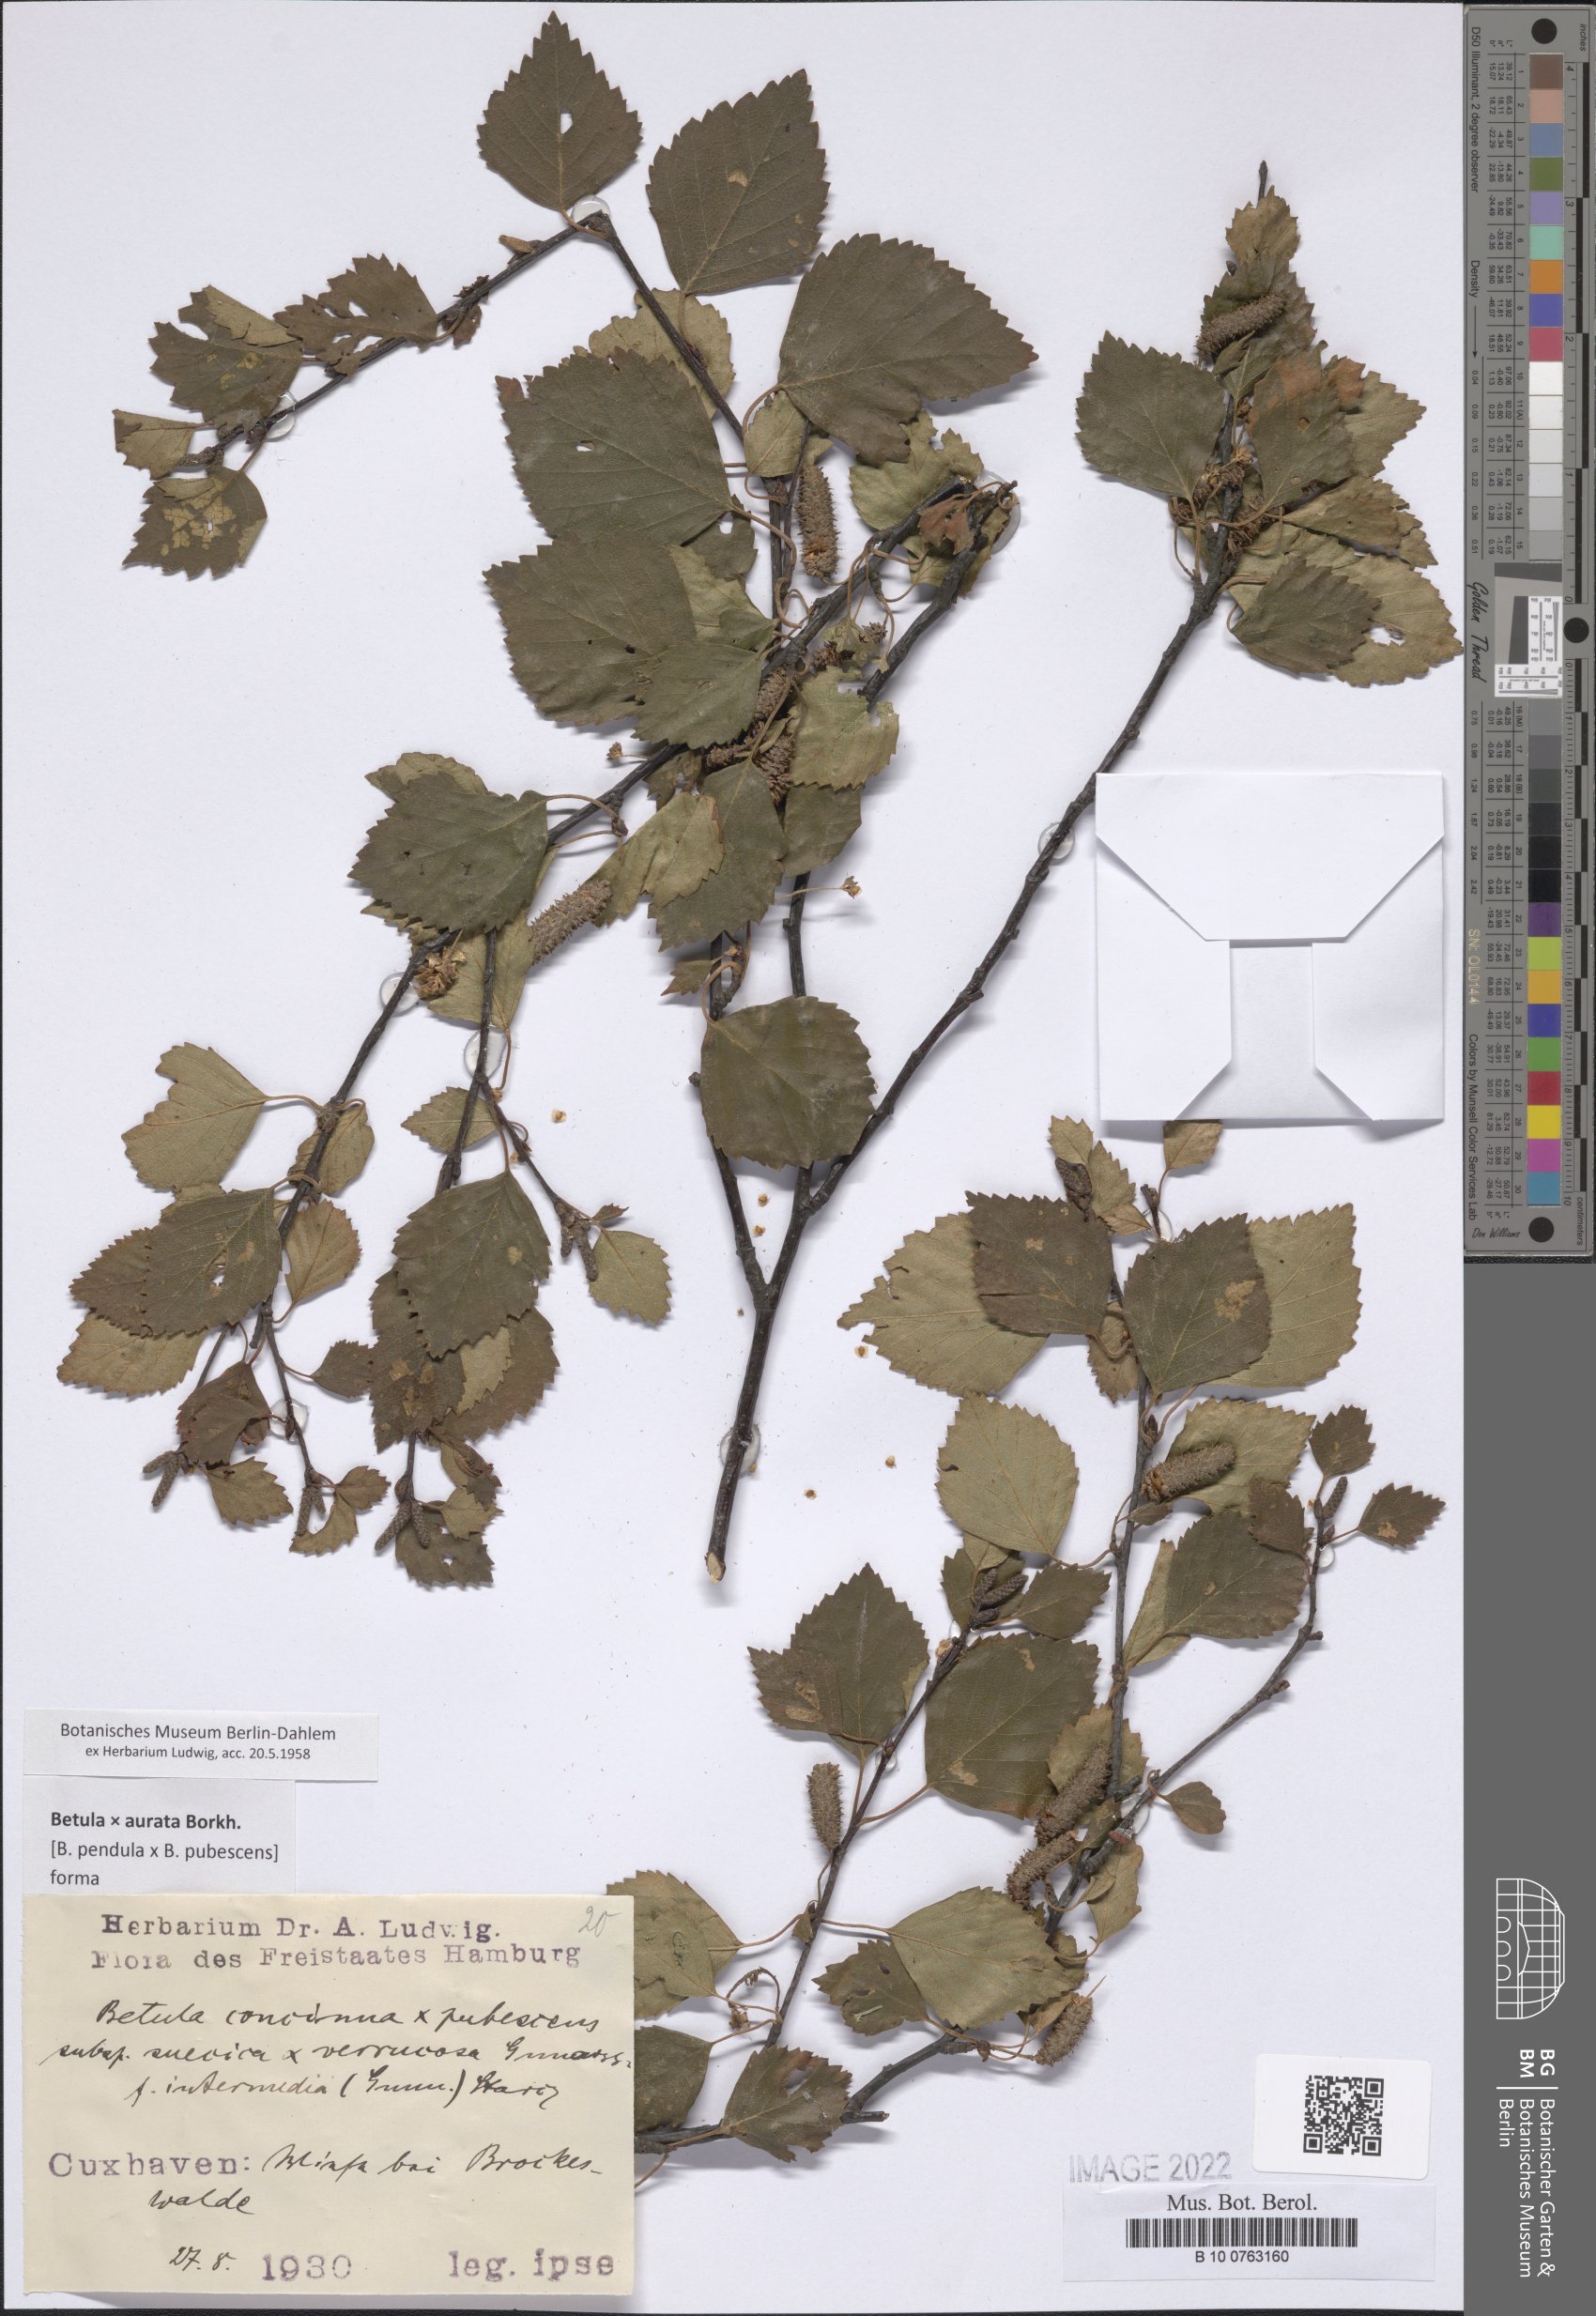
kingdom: Plantae
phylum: Tracheophyta
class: Magnoliopsida
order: Asterales
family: Asteraceae
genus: Perezia
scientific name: Perezia multiflora
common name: Perezia
